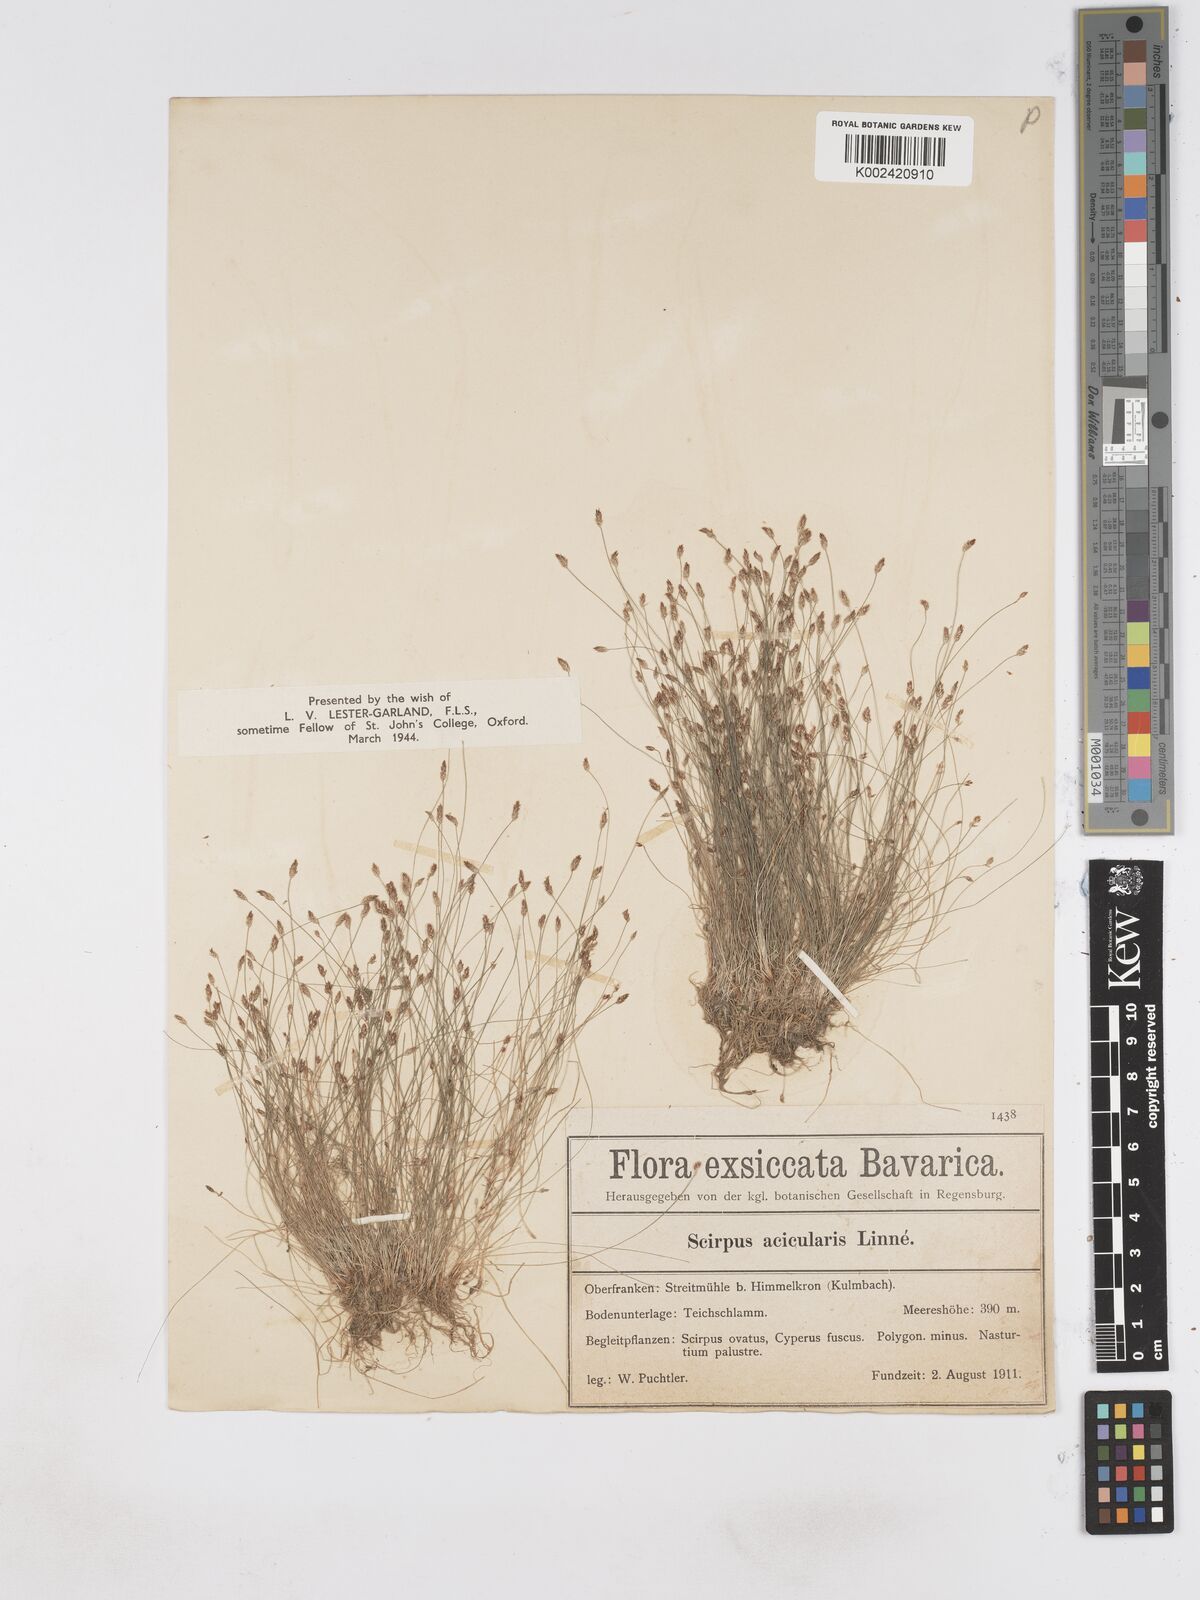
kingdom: Plantae
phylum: Tracheophyta
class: Liliopsida
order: Poales
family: Cyperaceae
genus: Eleocharis
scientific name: Eleocharis acicularis
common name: Needle spike-rush
